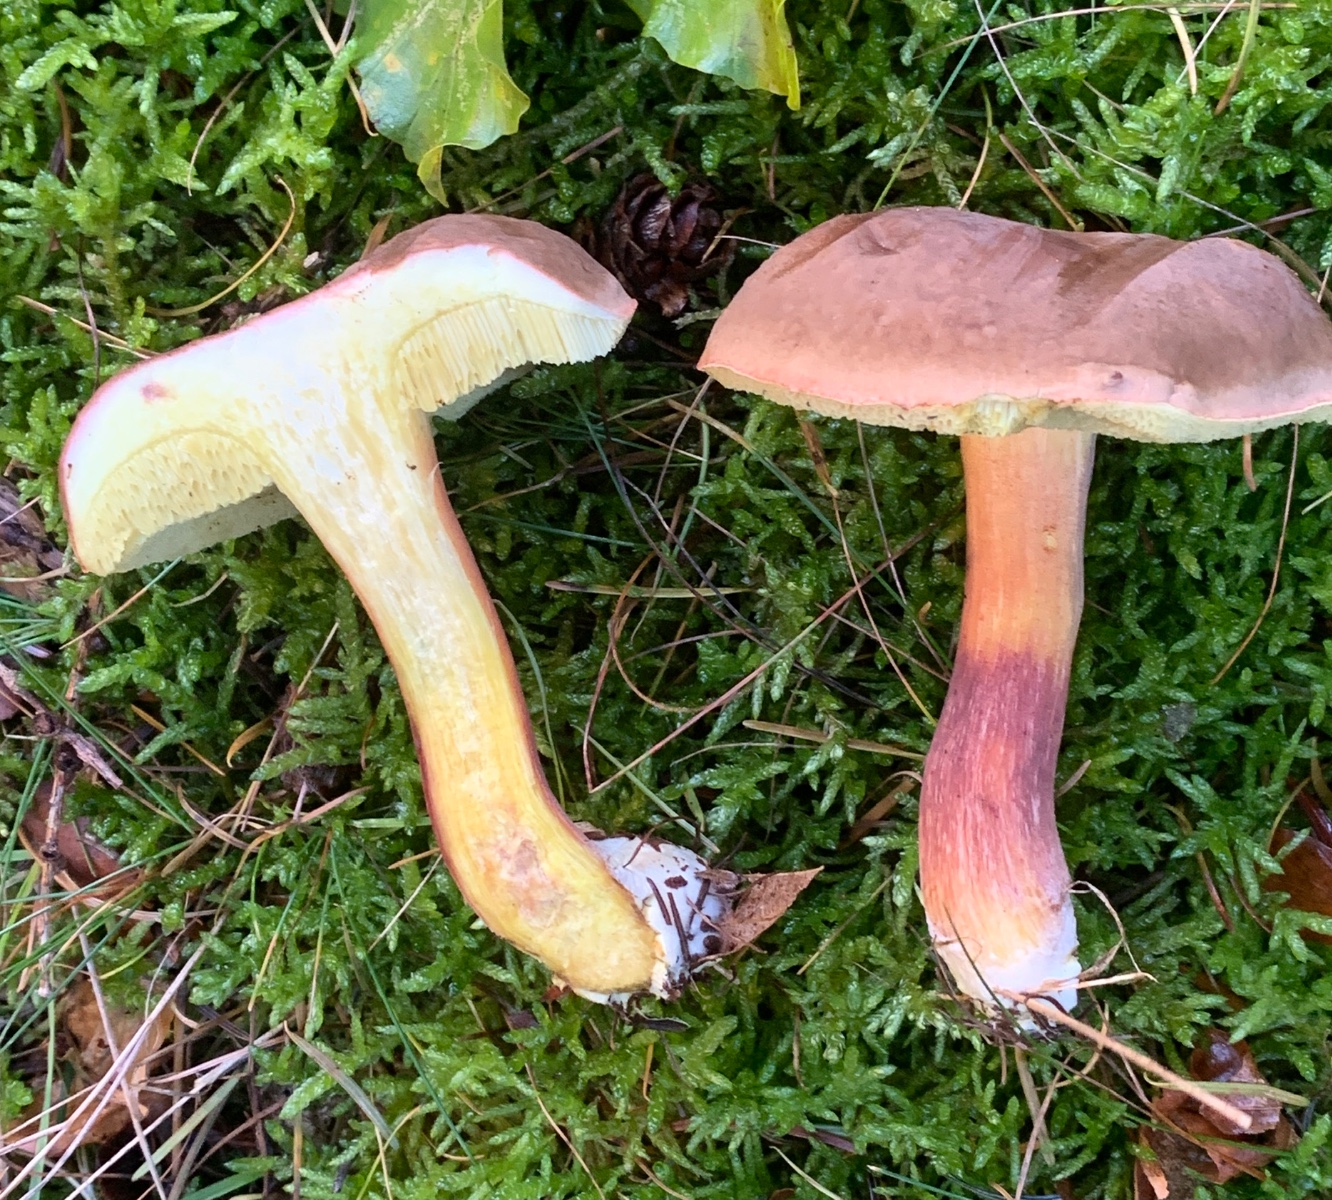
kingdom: Fungi
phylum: Basidiomycota
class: Agaricomycetes
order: Boletales
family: Boletaceae
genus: Xerocomellus
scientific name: Xerocomellus pruinatus
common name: dugget rørhat
